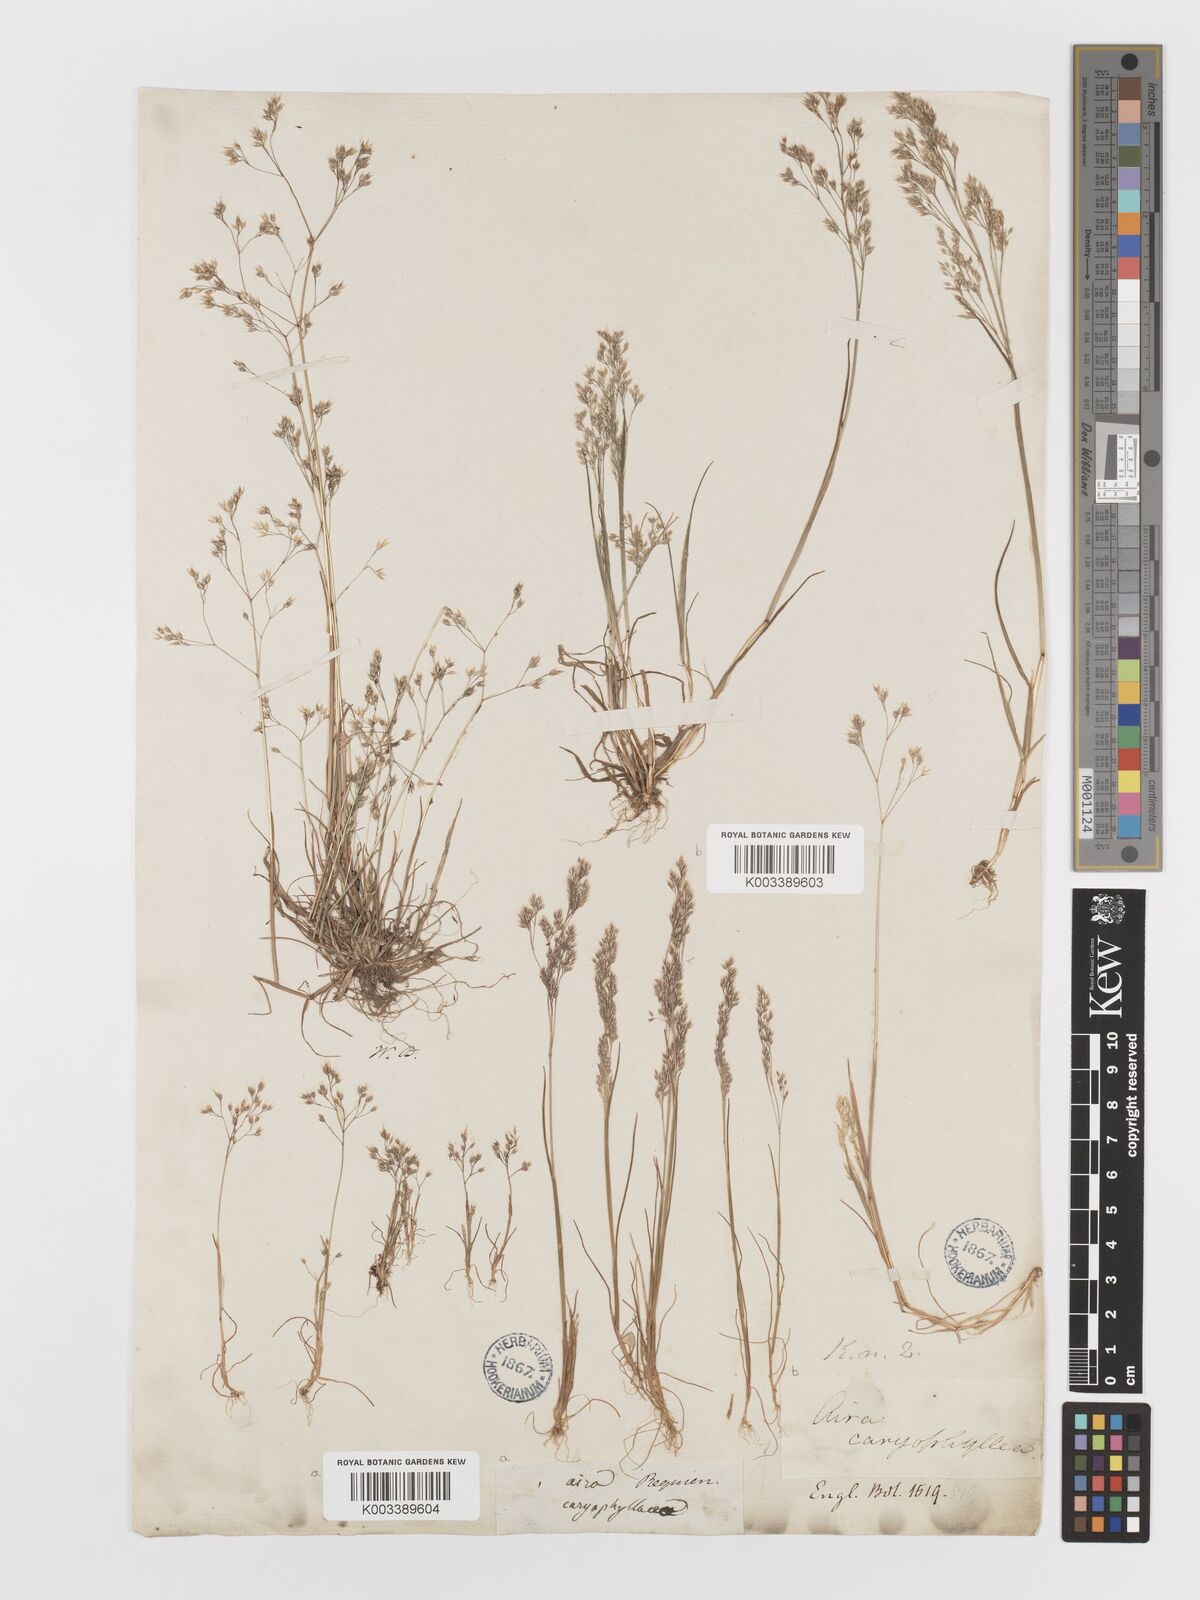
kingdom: Plantae
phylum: Tracheophyta
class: Liliopsida
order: Poales
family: Poaceae
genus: Aira
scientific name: Aira caryophyllea
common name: Silver hairgrass
